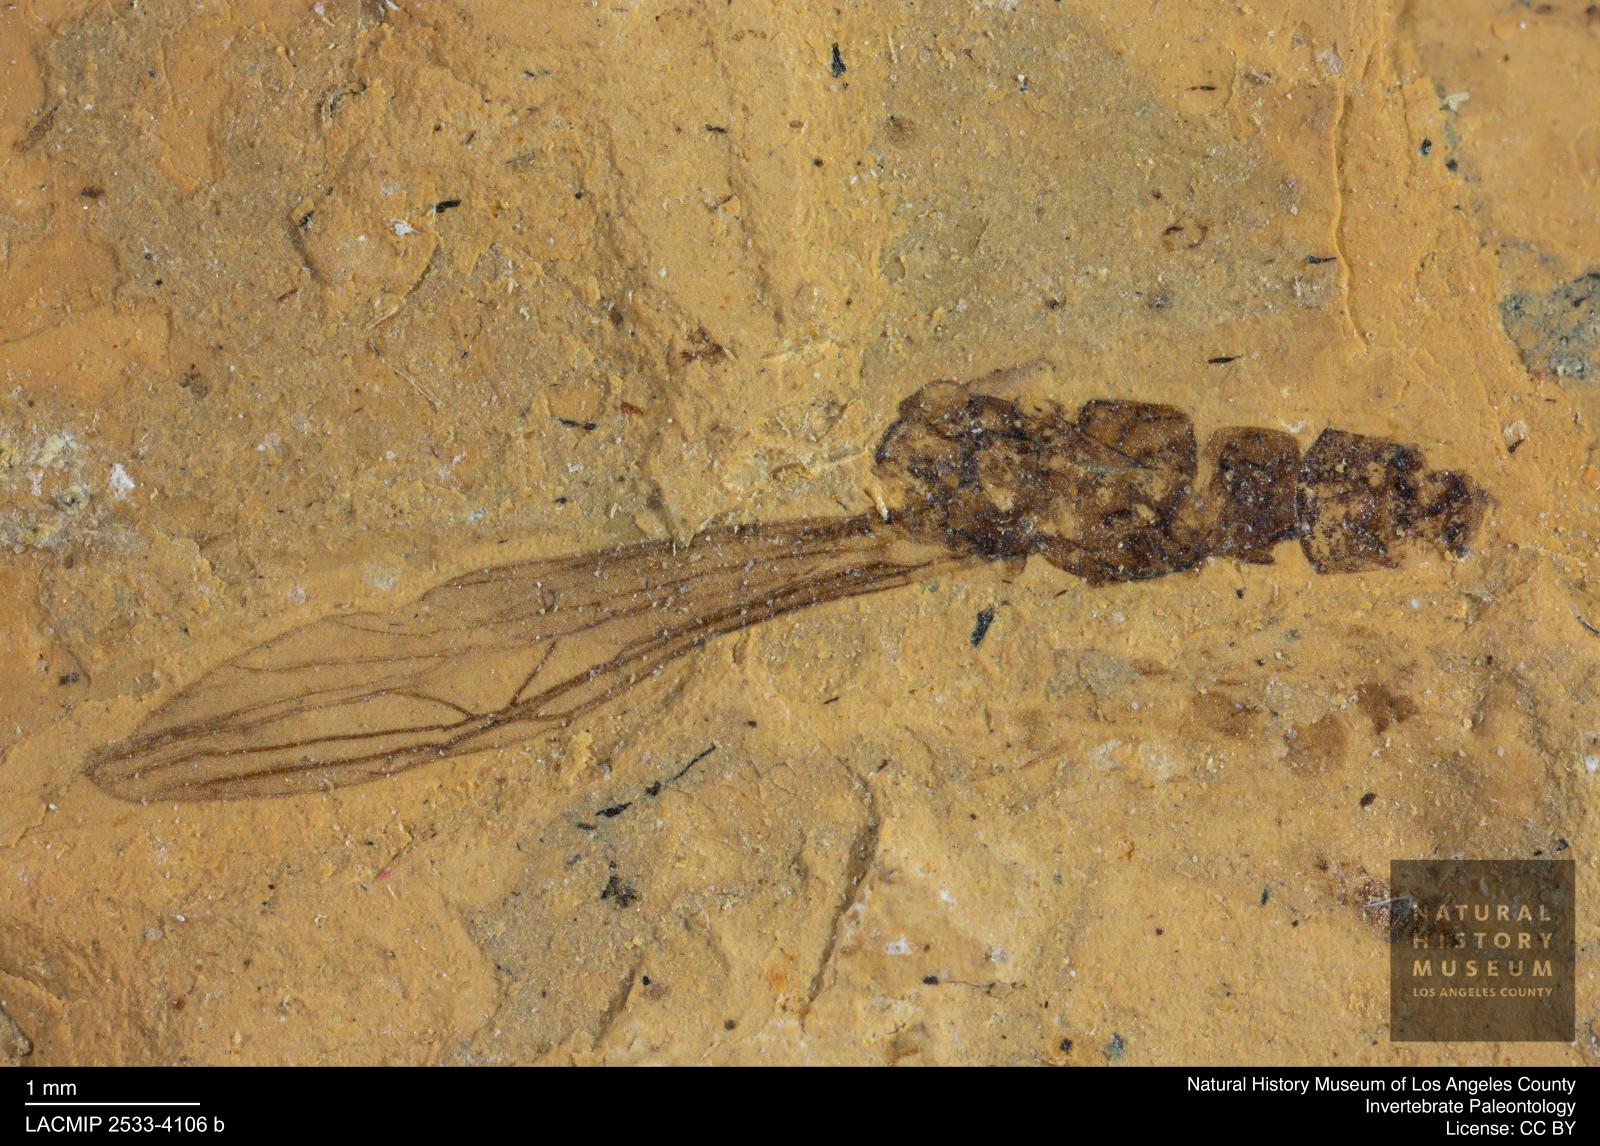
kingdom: Animalia
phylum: Arthropoda
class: Insecta
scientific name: Insecta
